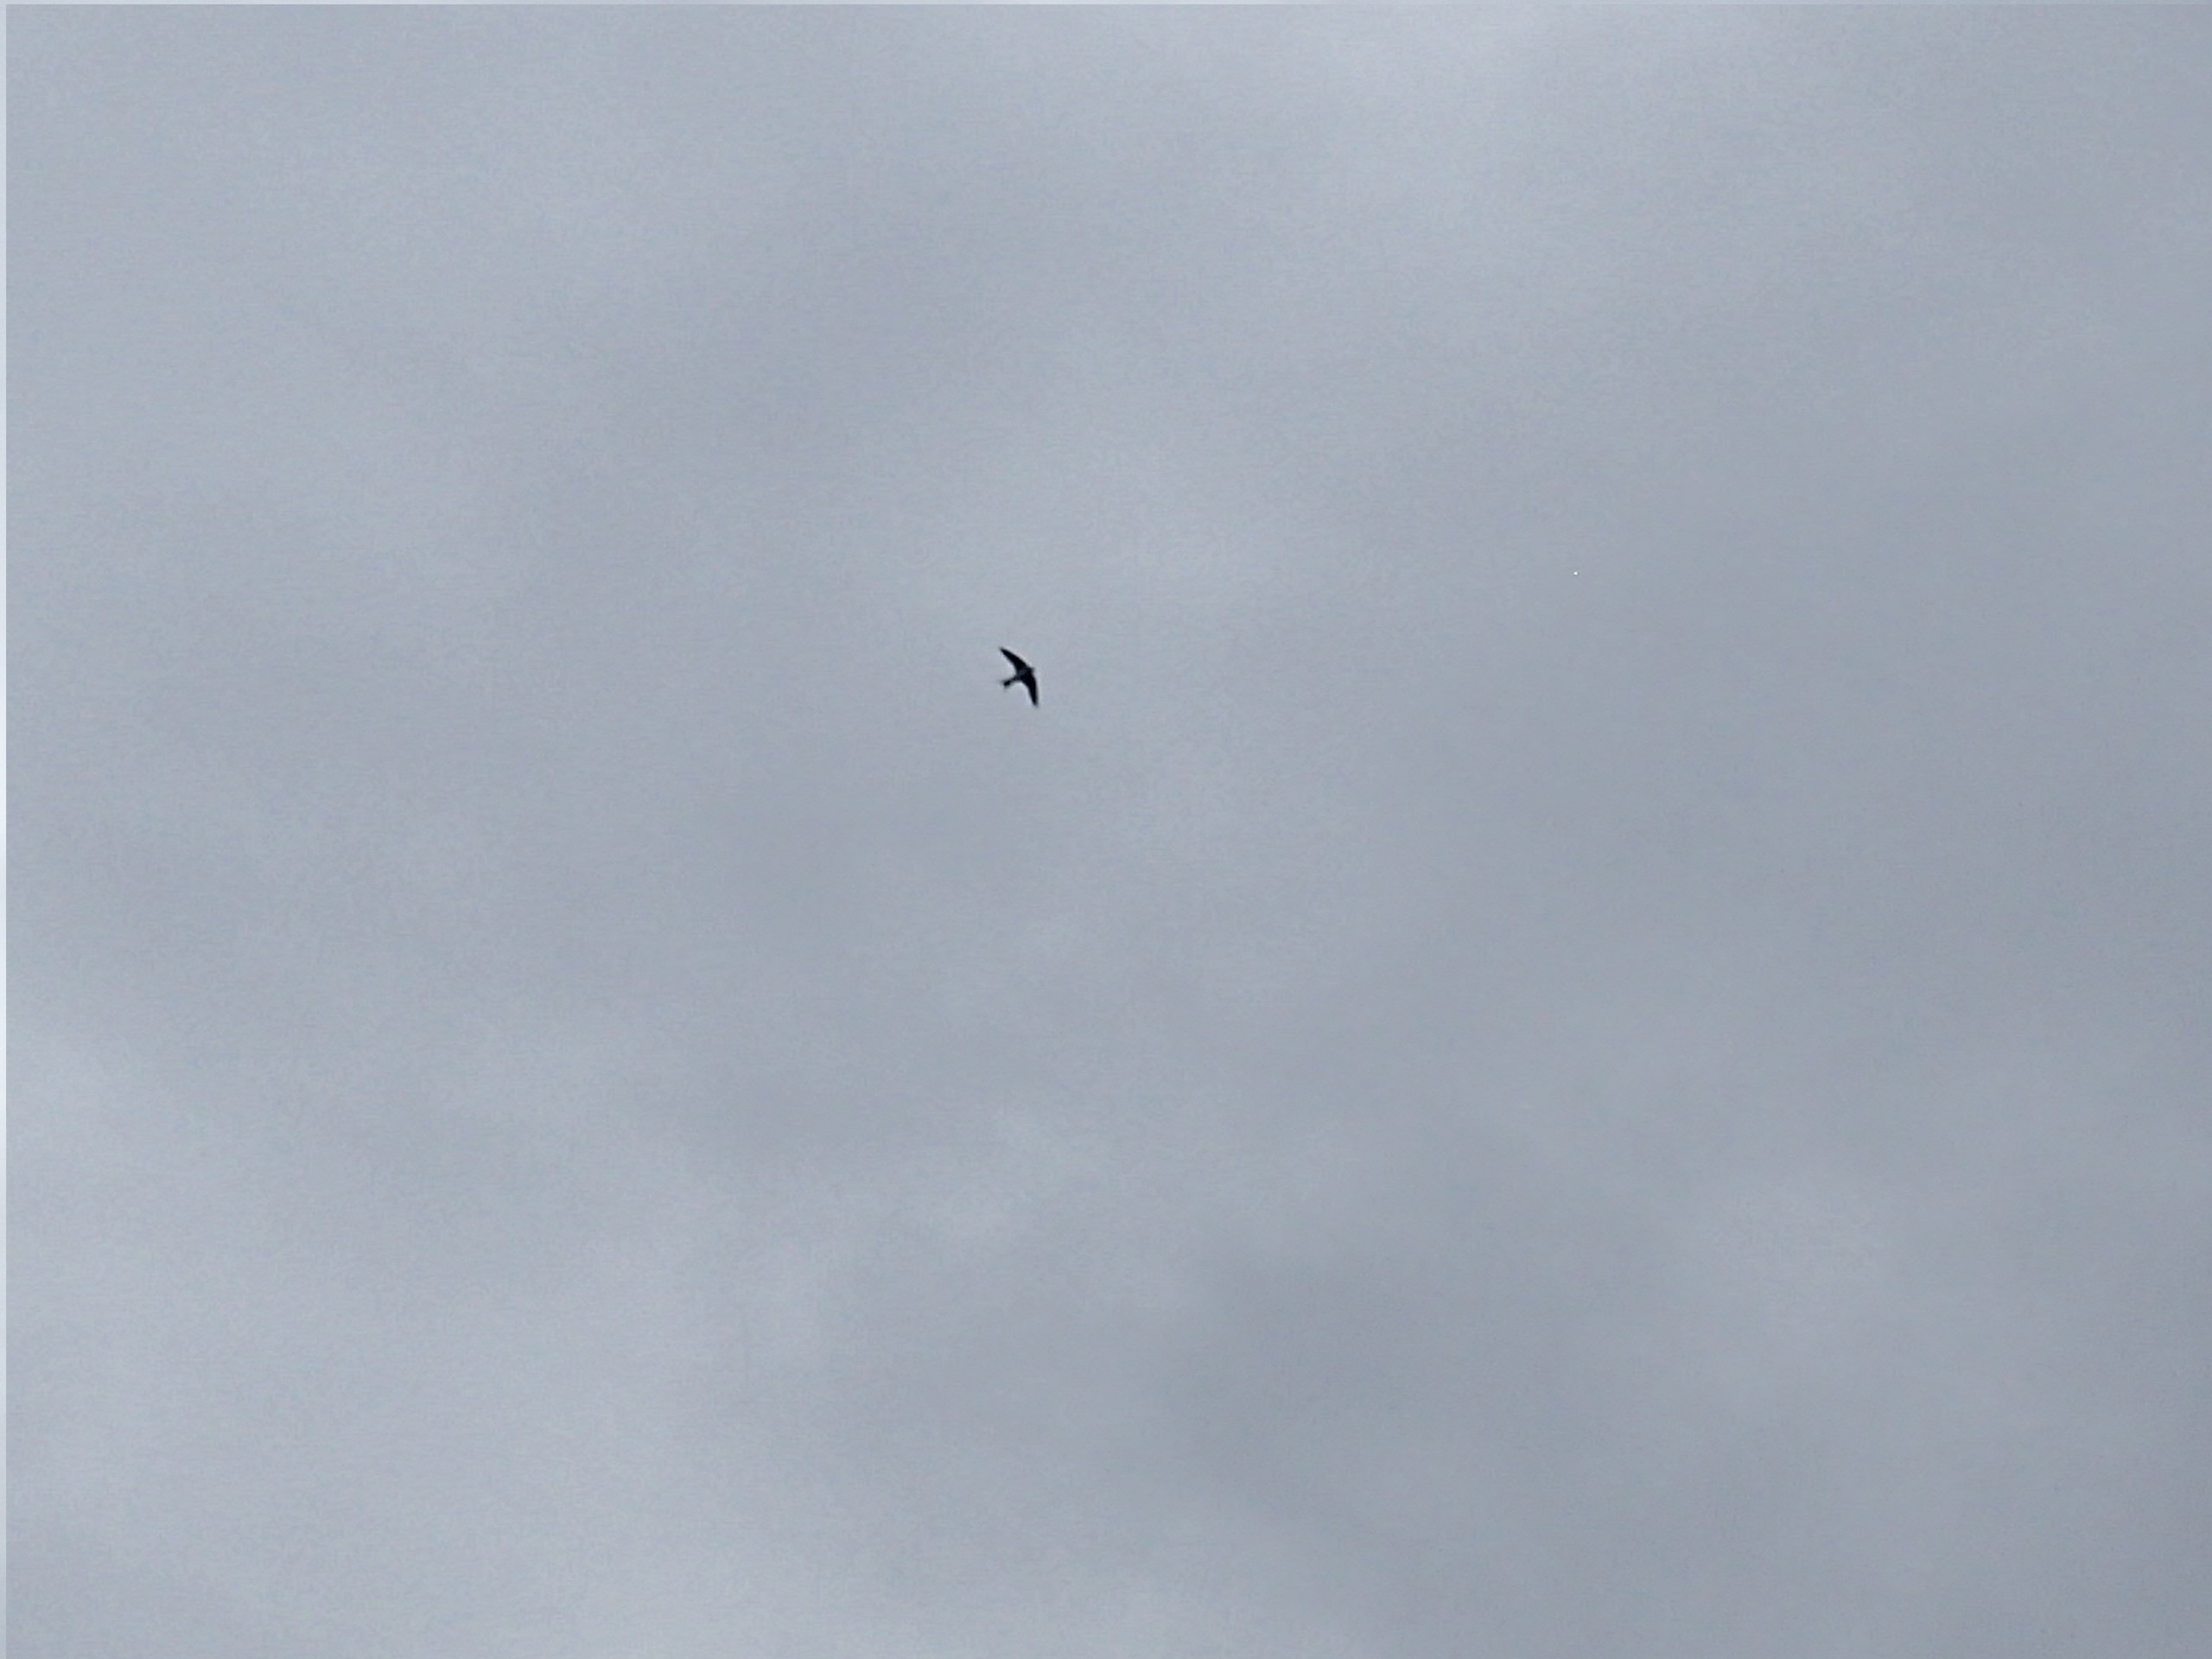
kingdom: Animalia
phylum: Chordata
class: Aves
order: Passeriformes
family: Hirundinidae
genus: Delichon
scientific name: Delichon urbicum
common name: Bysvale
